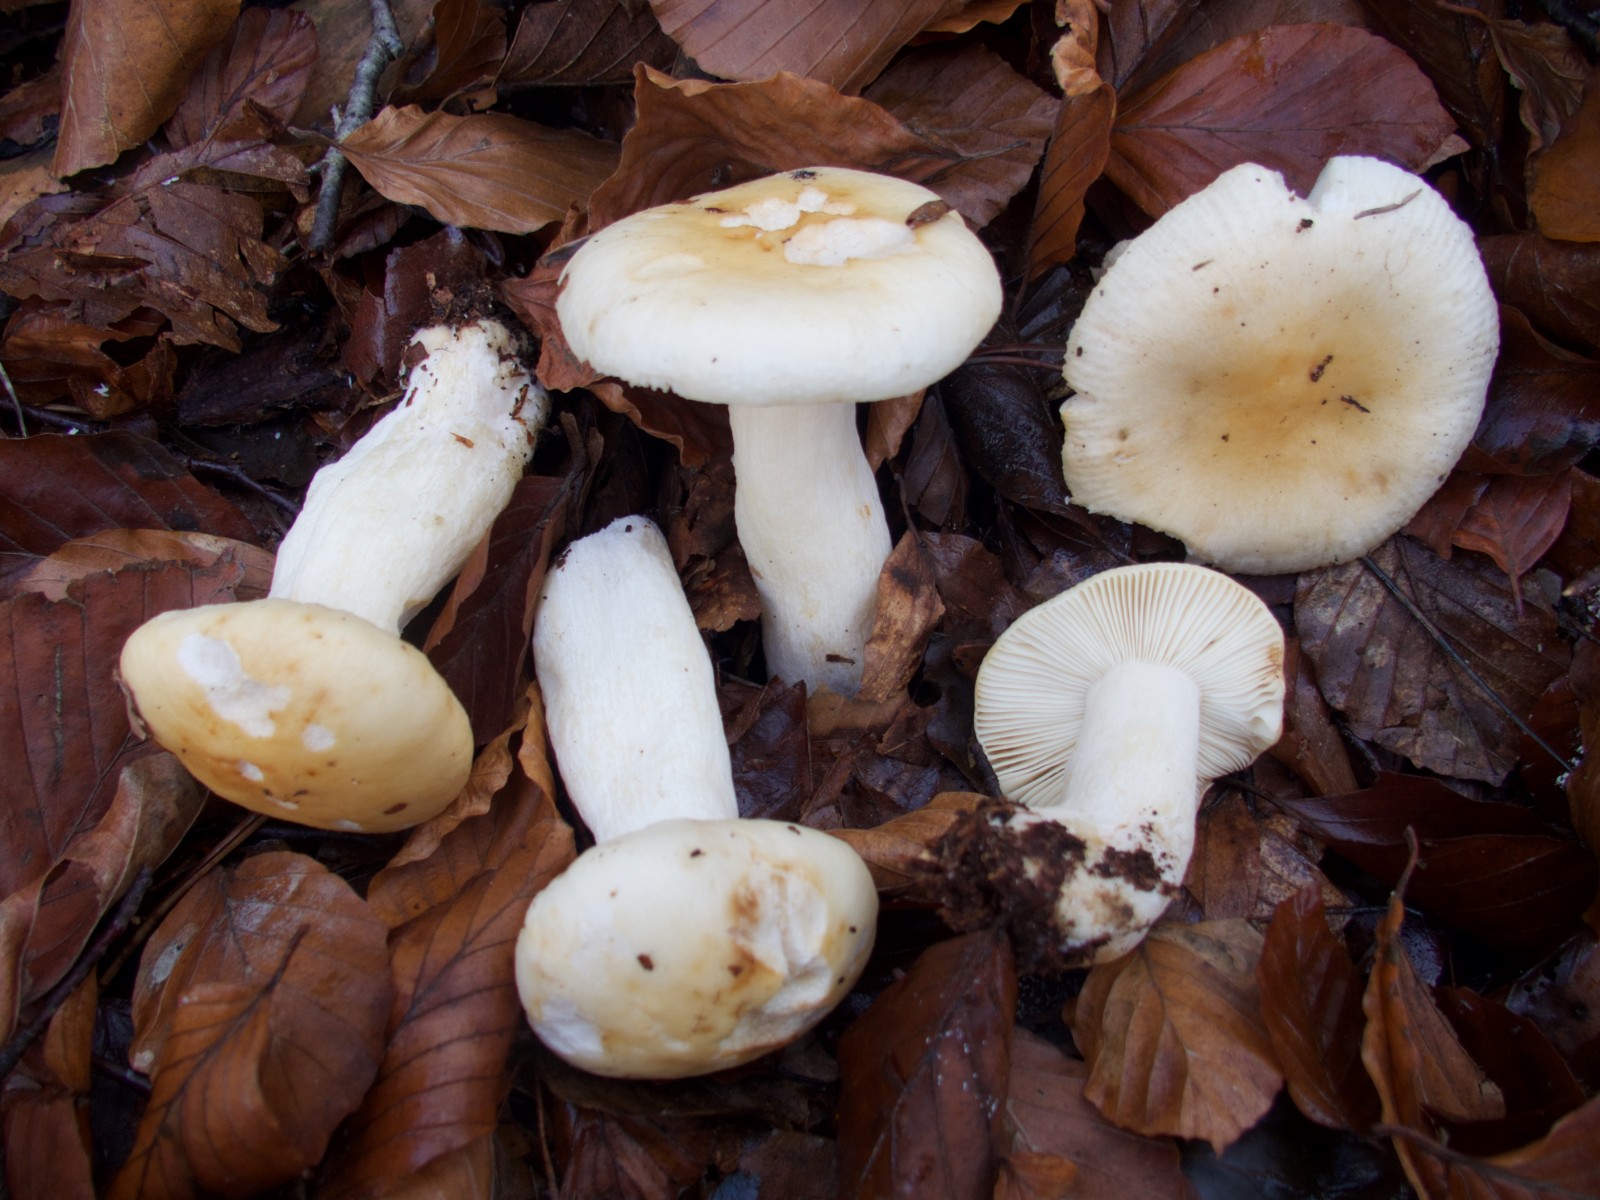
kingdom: Fungi
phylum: Basidiomycota
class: Agaricomycetes
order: Russulales
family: Russulaceae
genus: Russula
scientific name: Russula fellea
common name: galde-skørhat
